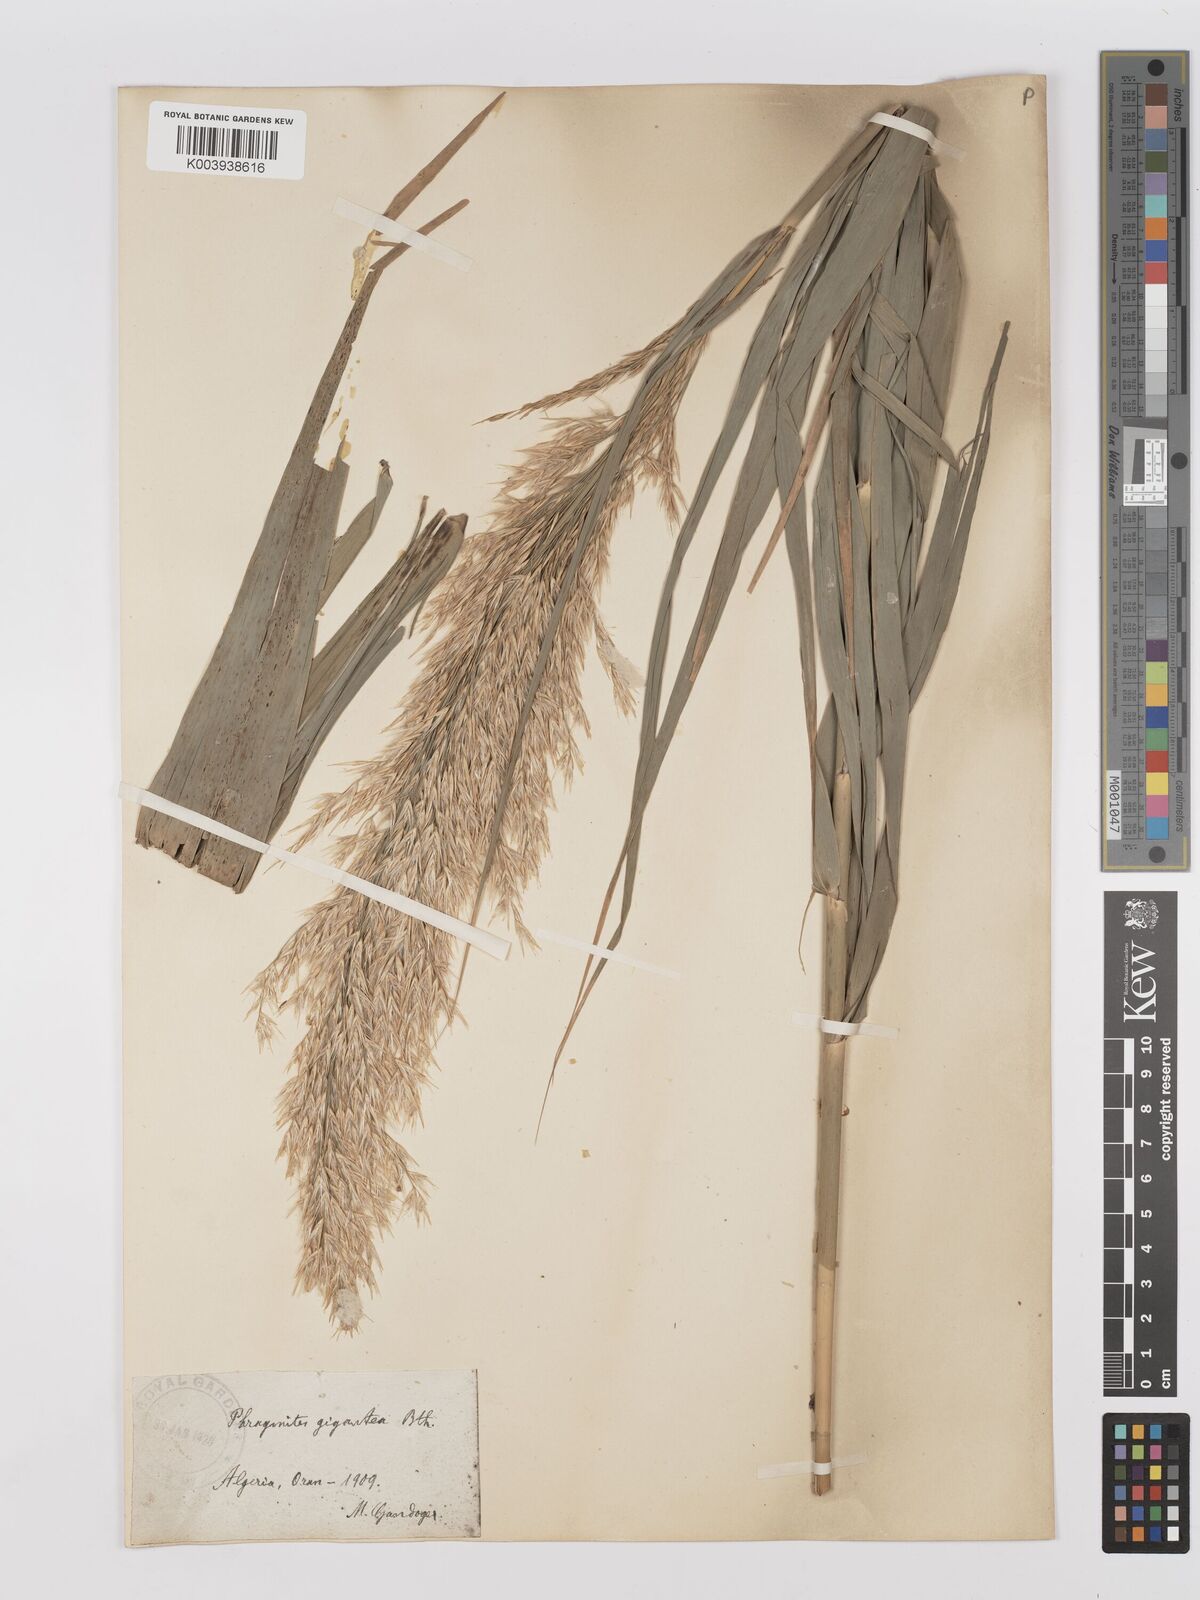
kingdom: Plantae
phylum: Tracheophyta
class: Liliopsida
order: Poales
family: Poaceae
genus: Phragmites
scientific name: Phragmites australis
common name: Common reed
